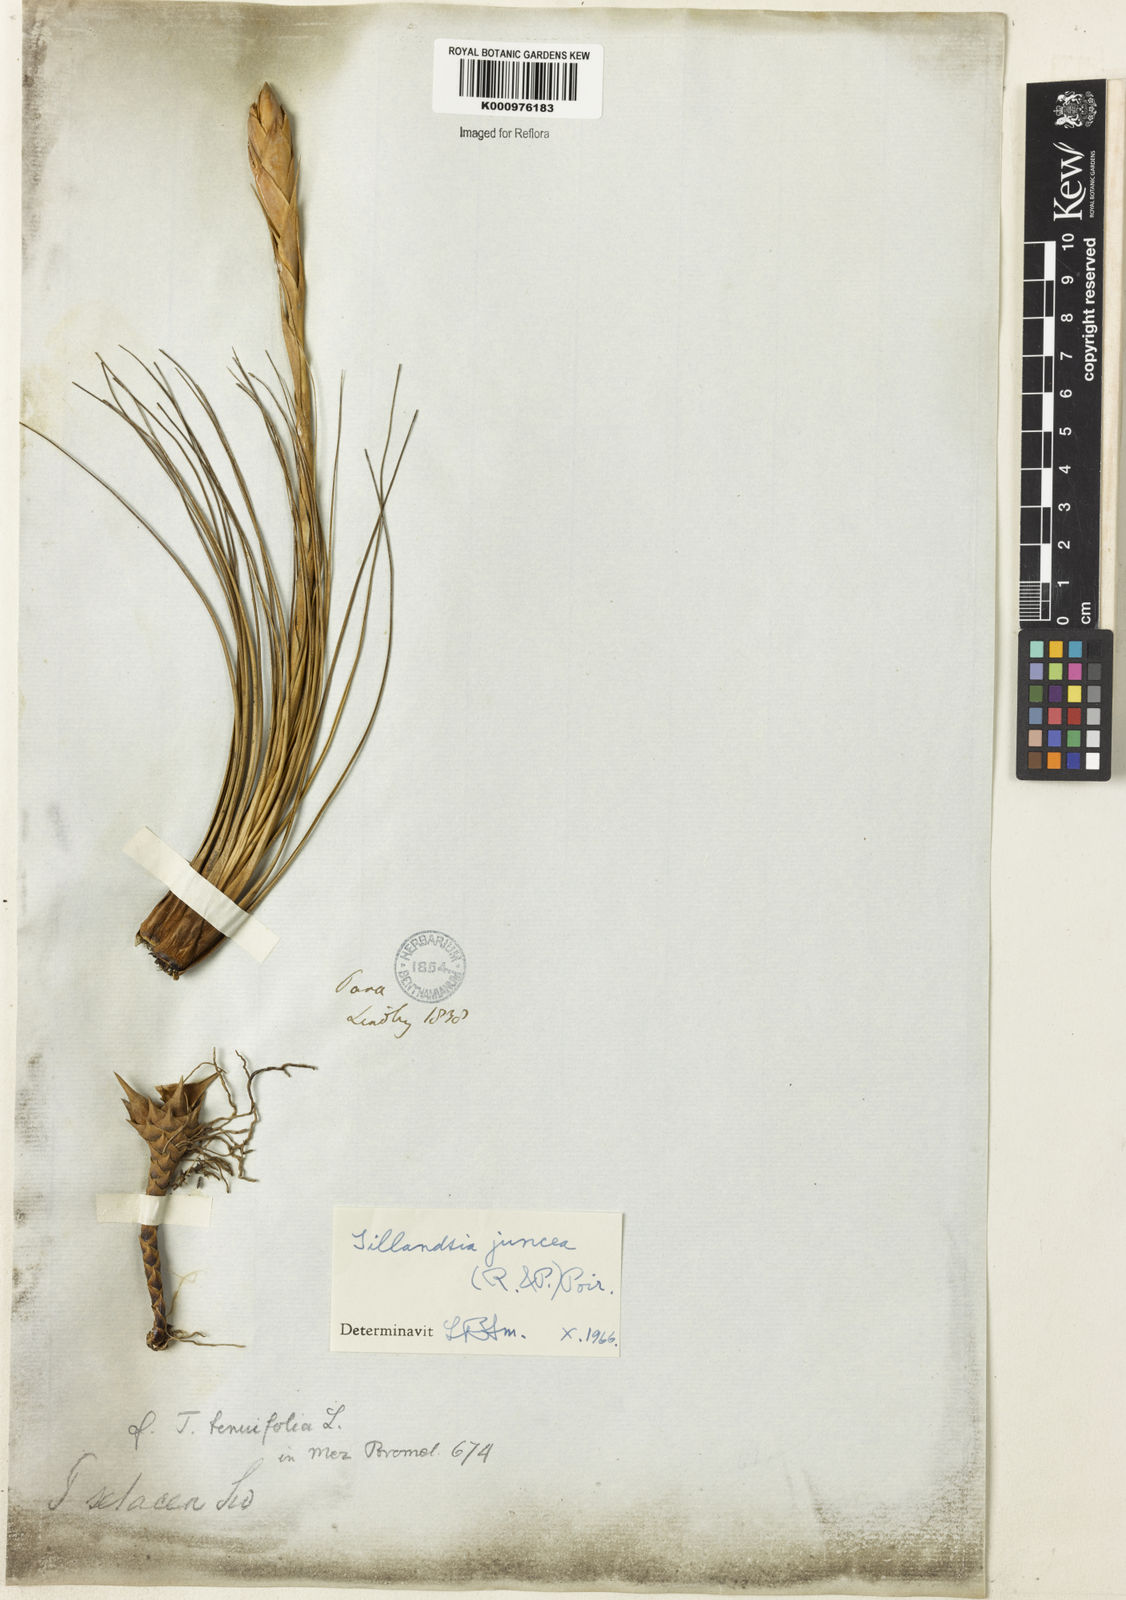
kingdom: Plantae
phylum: Tracheophyta
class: Liliopsida
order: Poales
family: Bromeliaceae
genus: Tillandsia
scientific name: Tillandsia juncea
